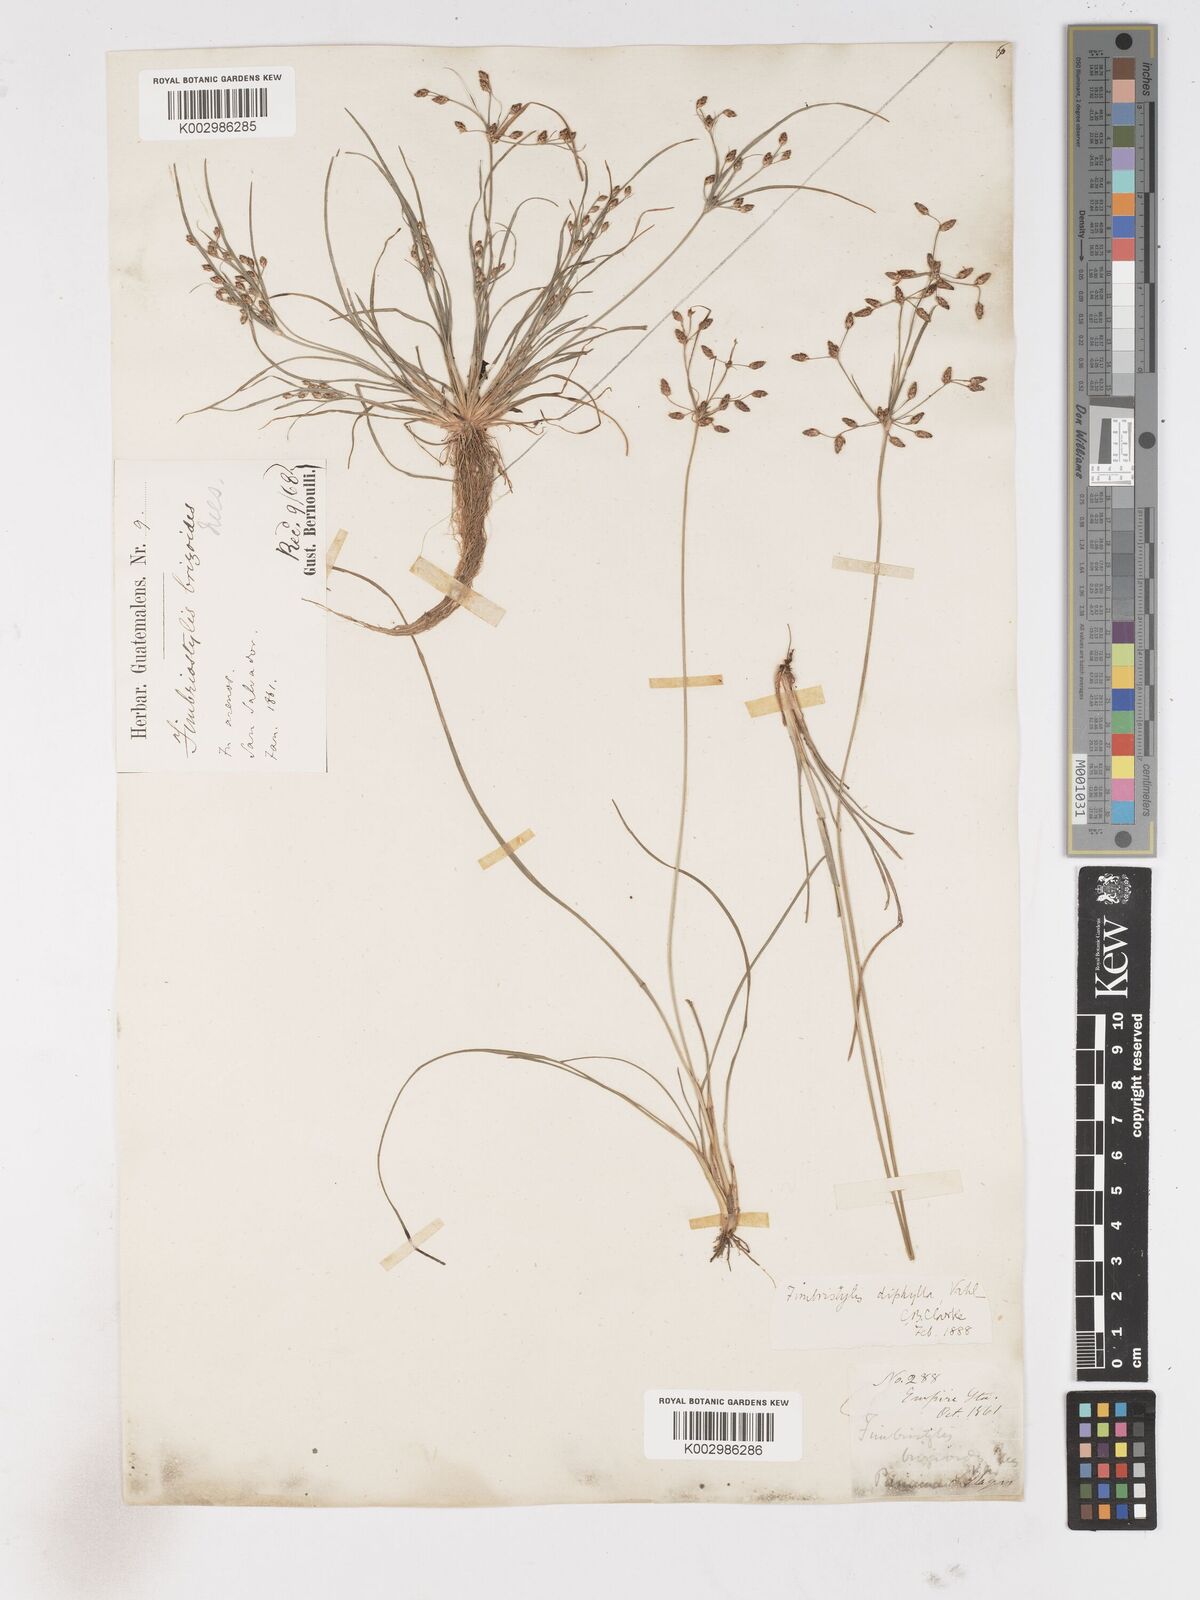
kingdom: Plantae
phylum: Tracheophyta
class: Liliopsida
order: Poales
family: Cyperaceae
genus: Fimbristylis
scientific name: Fimbristylis dichotoma
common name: Forked fimbry
